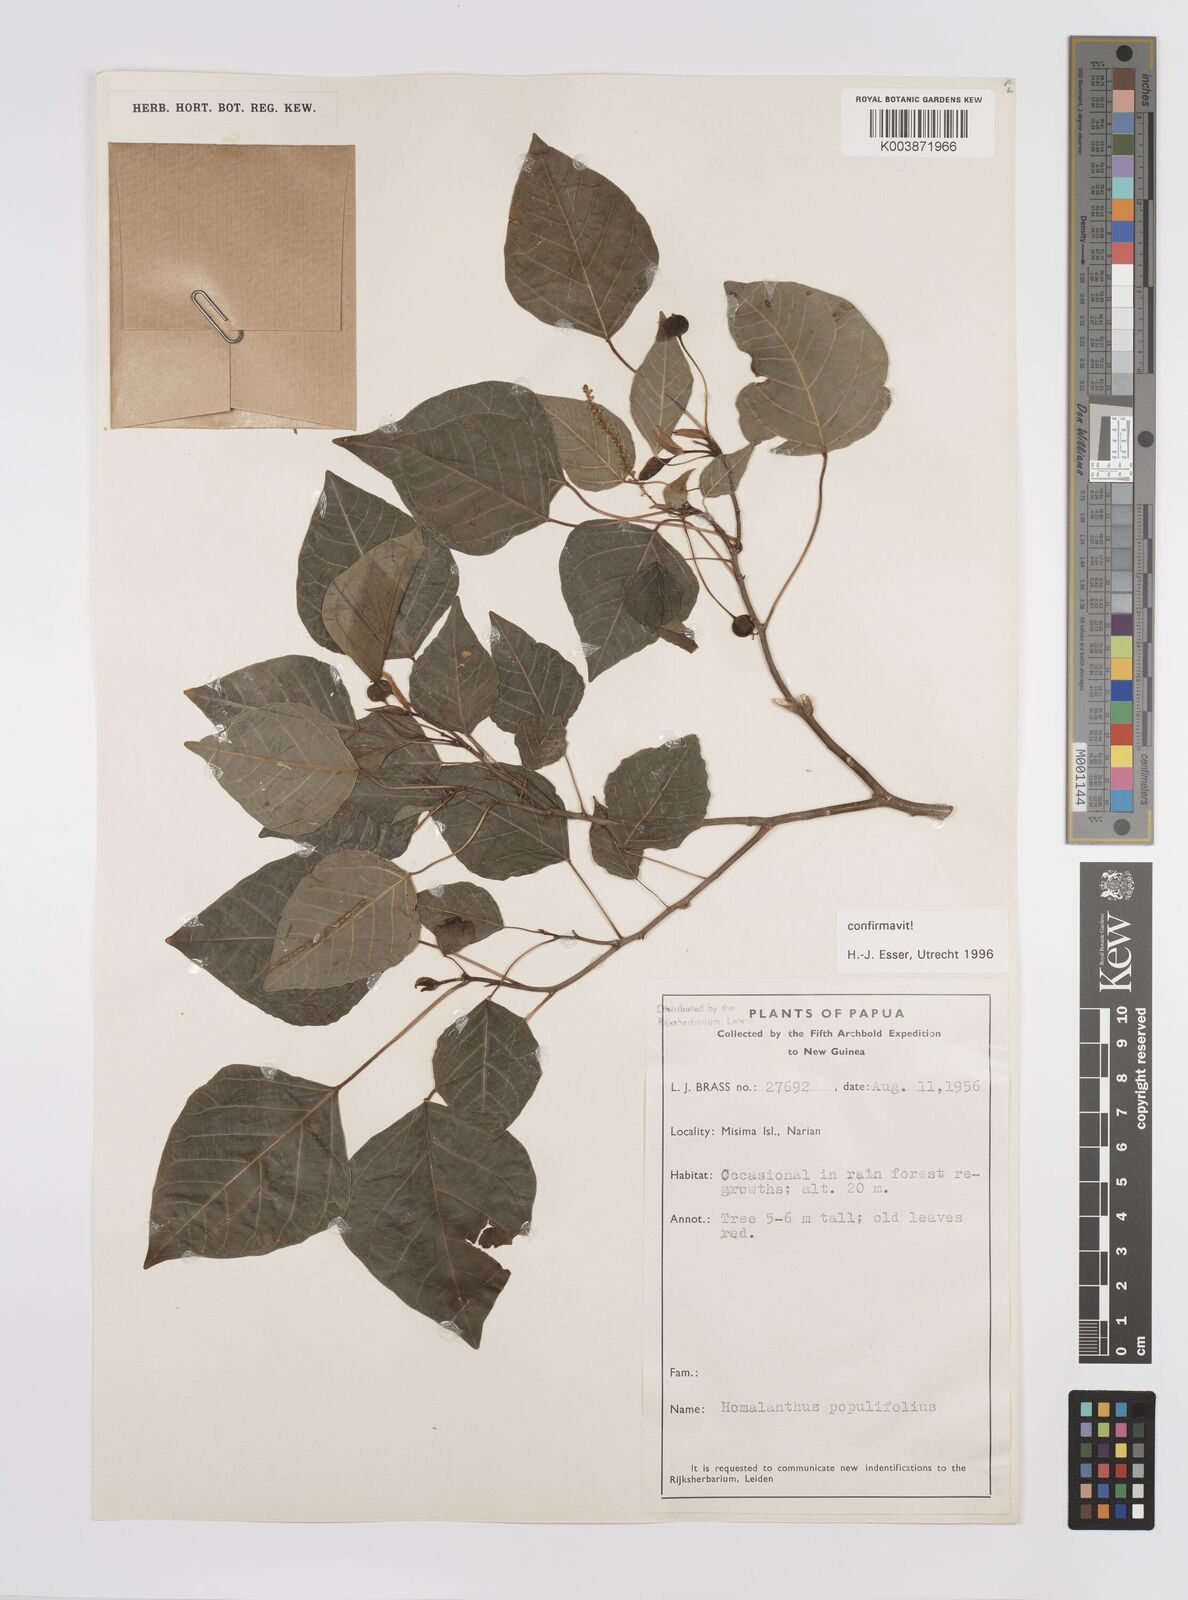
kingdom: Plantae
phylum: Tracheophyta
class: Magnoliopsida
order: Malpighiales
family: Euphorbiaceae
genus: Homalanthus
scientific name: Homalanthus populifolius
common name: Queensland poplar
